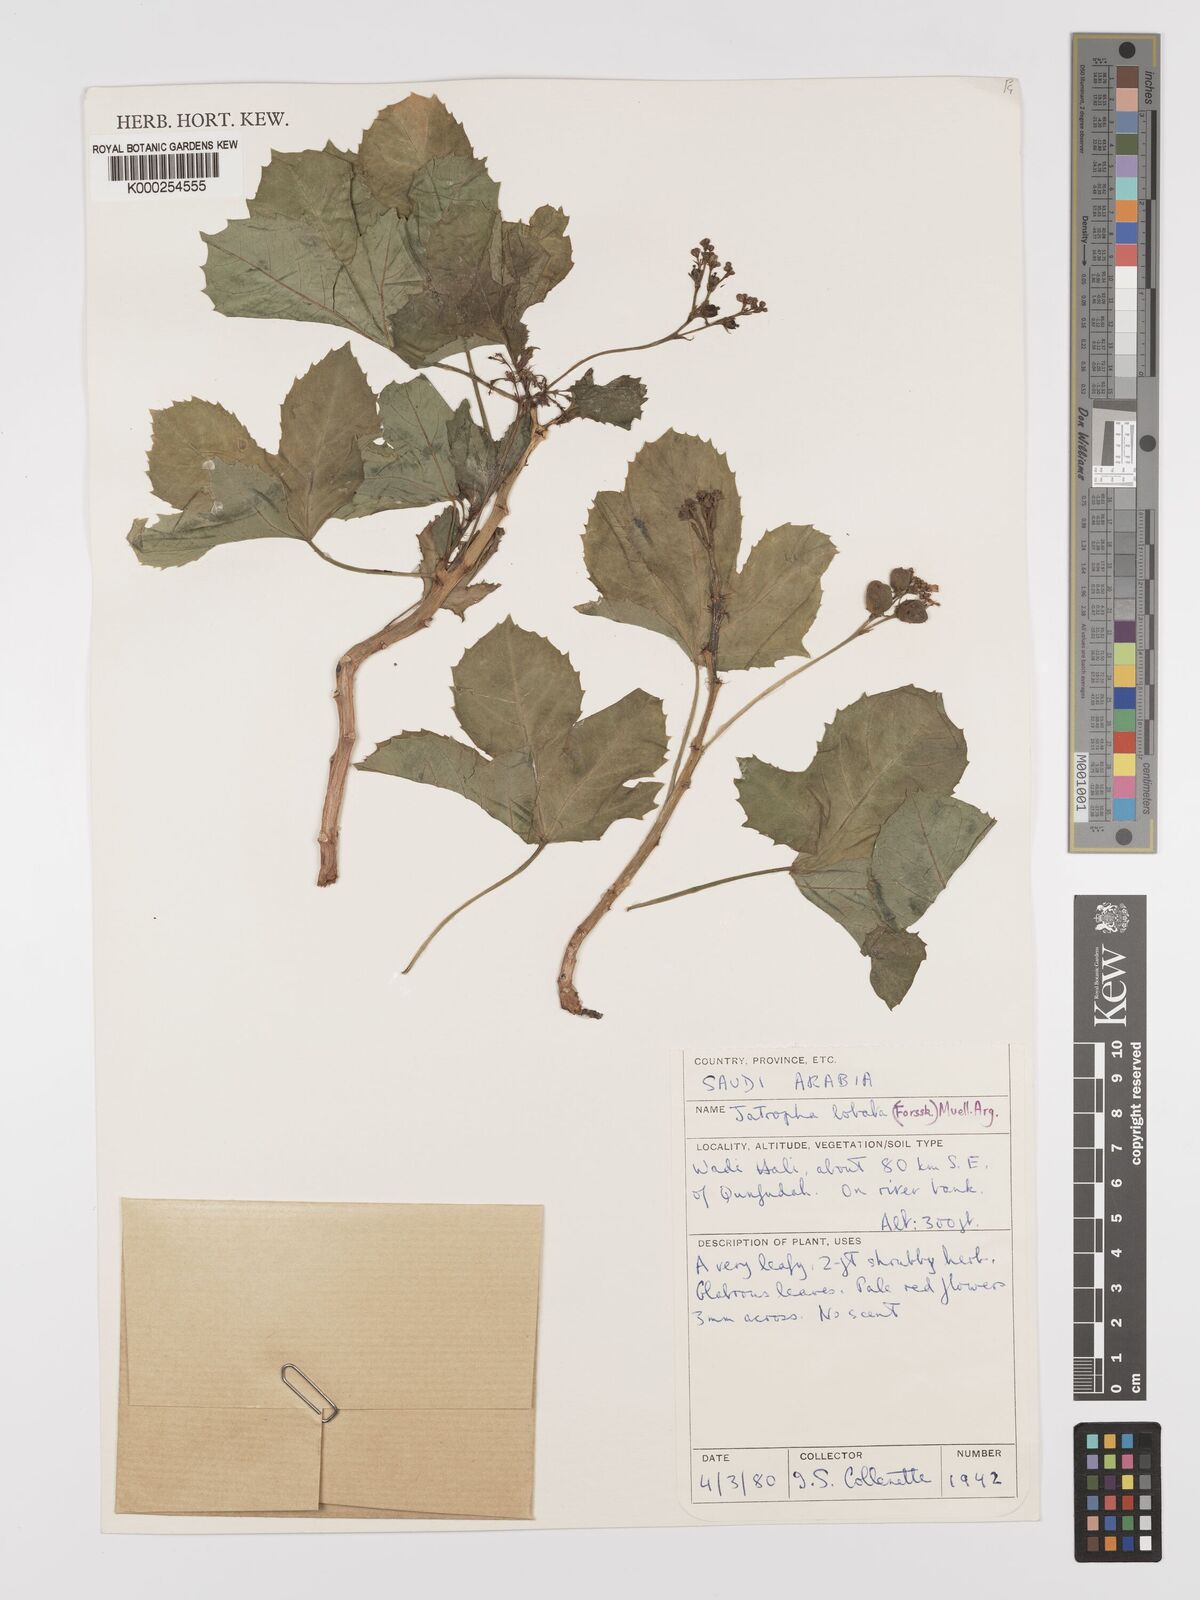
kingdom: Plantae
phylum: Tracheophyta
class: Magnoliopsida
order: Malpighiales
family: Euphorbiaceae
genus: Jatropha
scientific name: Jatropha glauca
